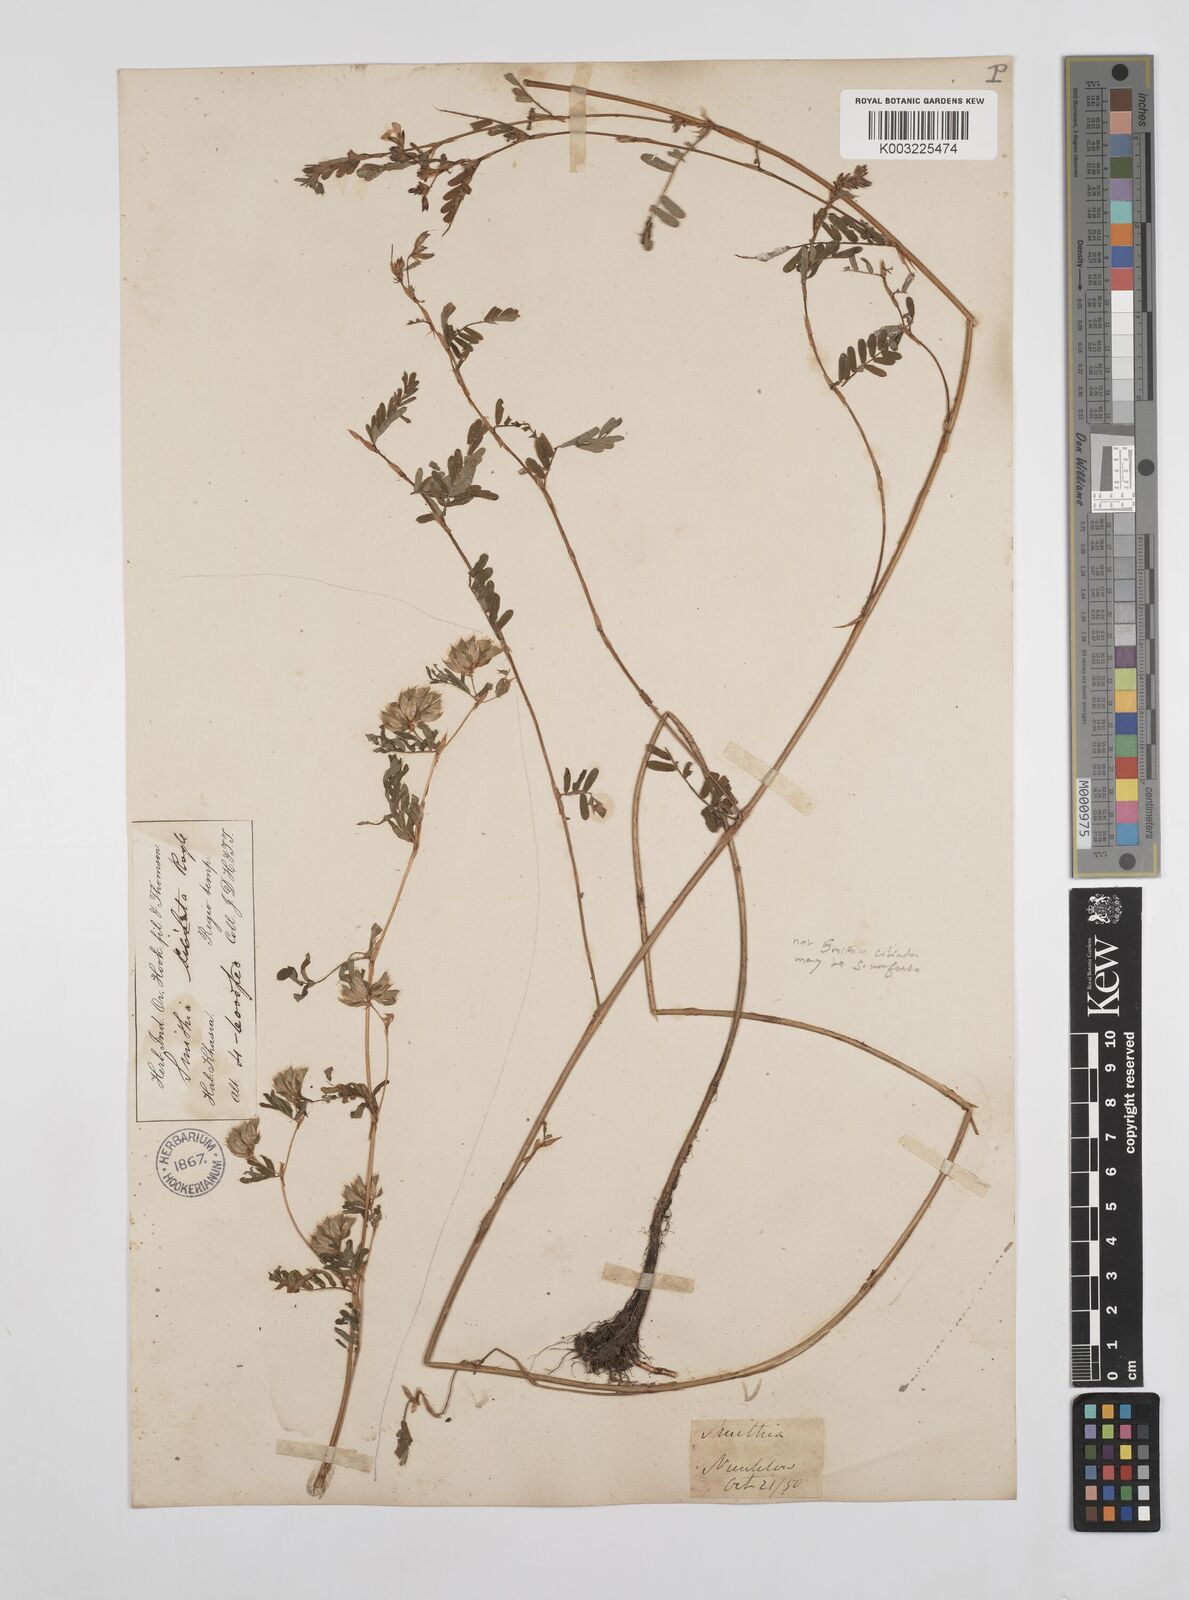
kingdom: Plantae
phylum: Tracheophyta
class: Magnoliopsida
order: Fabales
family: Fabaceae
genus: Smithia
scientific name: Smithia ciliata
